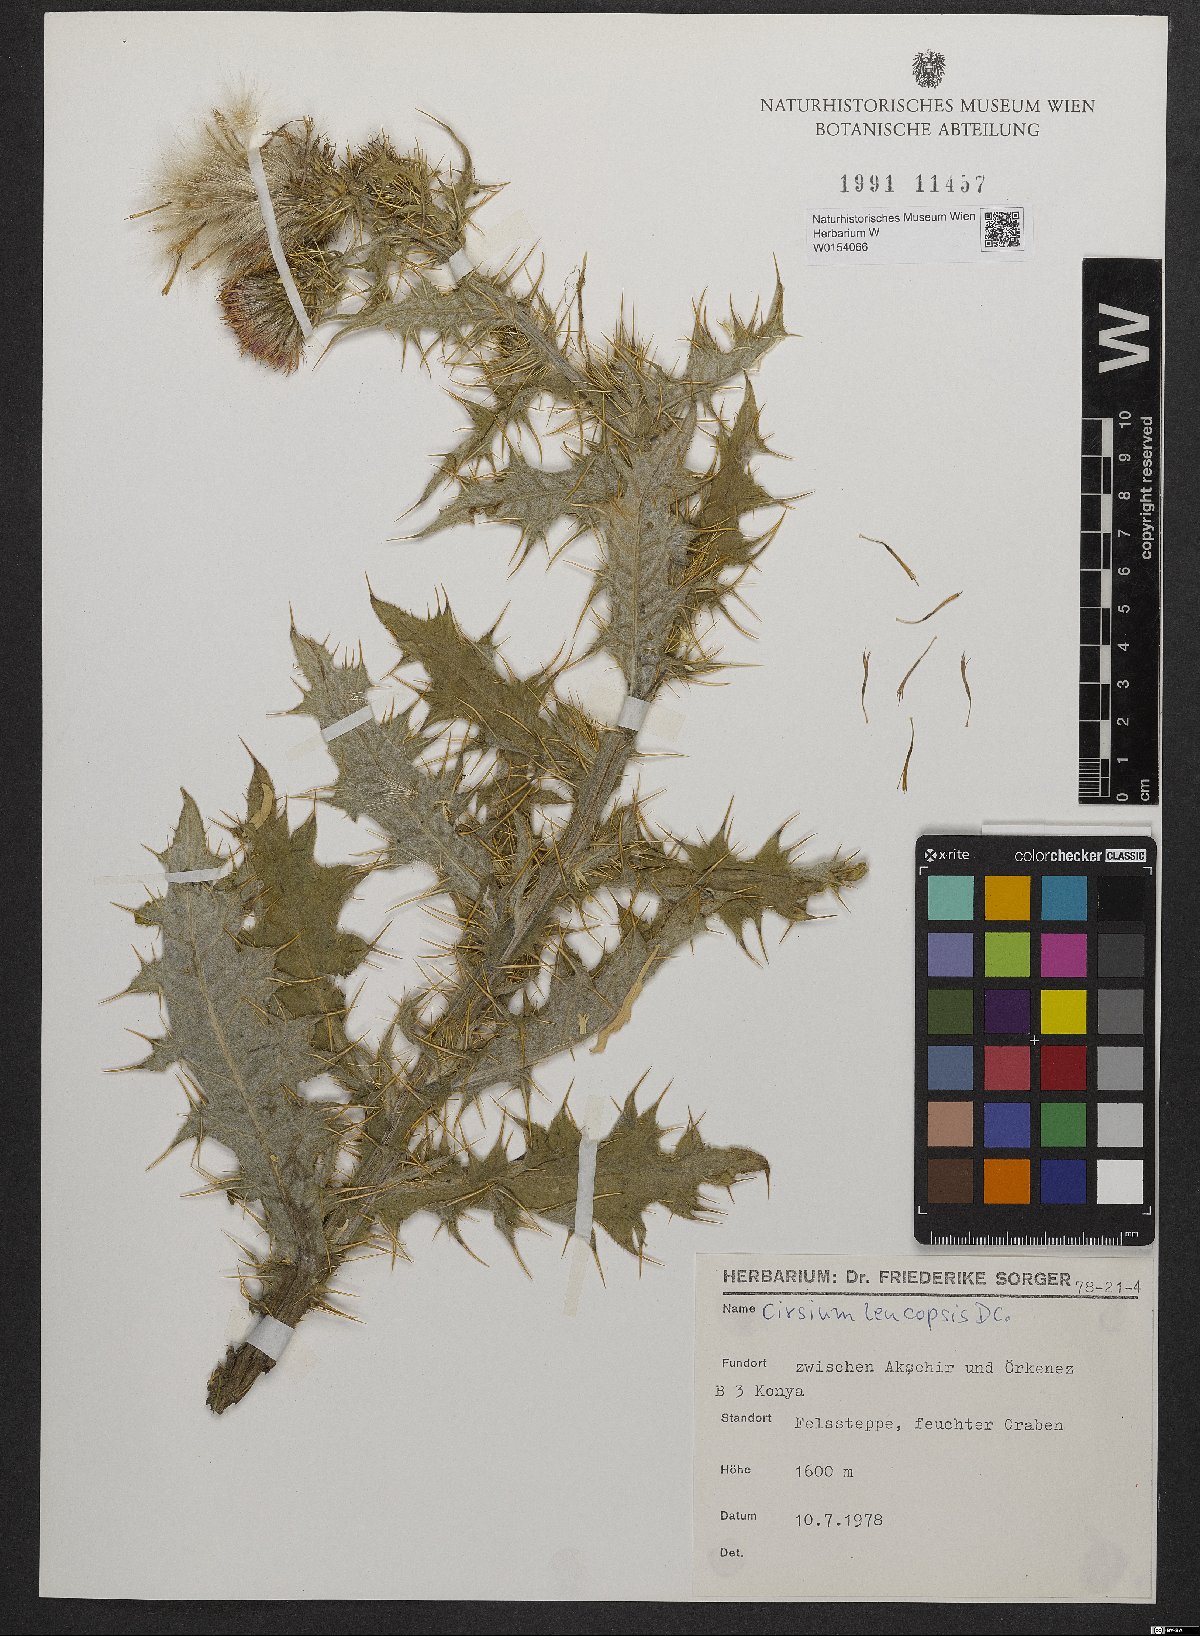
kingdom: Plantae
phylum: Tracheophyta
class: Magnoliopsida
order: Asterales
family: Asteraceae
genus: Cirsium
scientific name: Cirsium leucopsis
